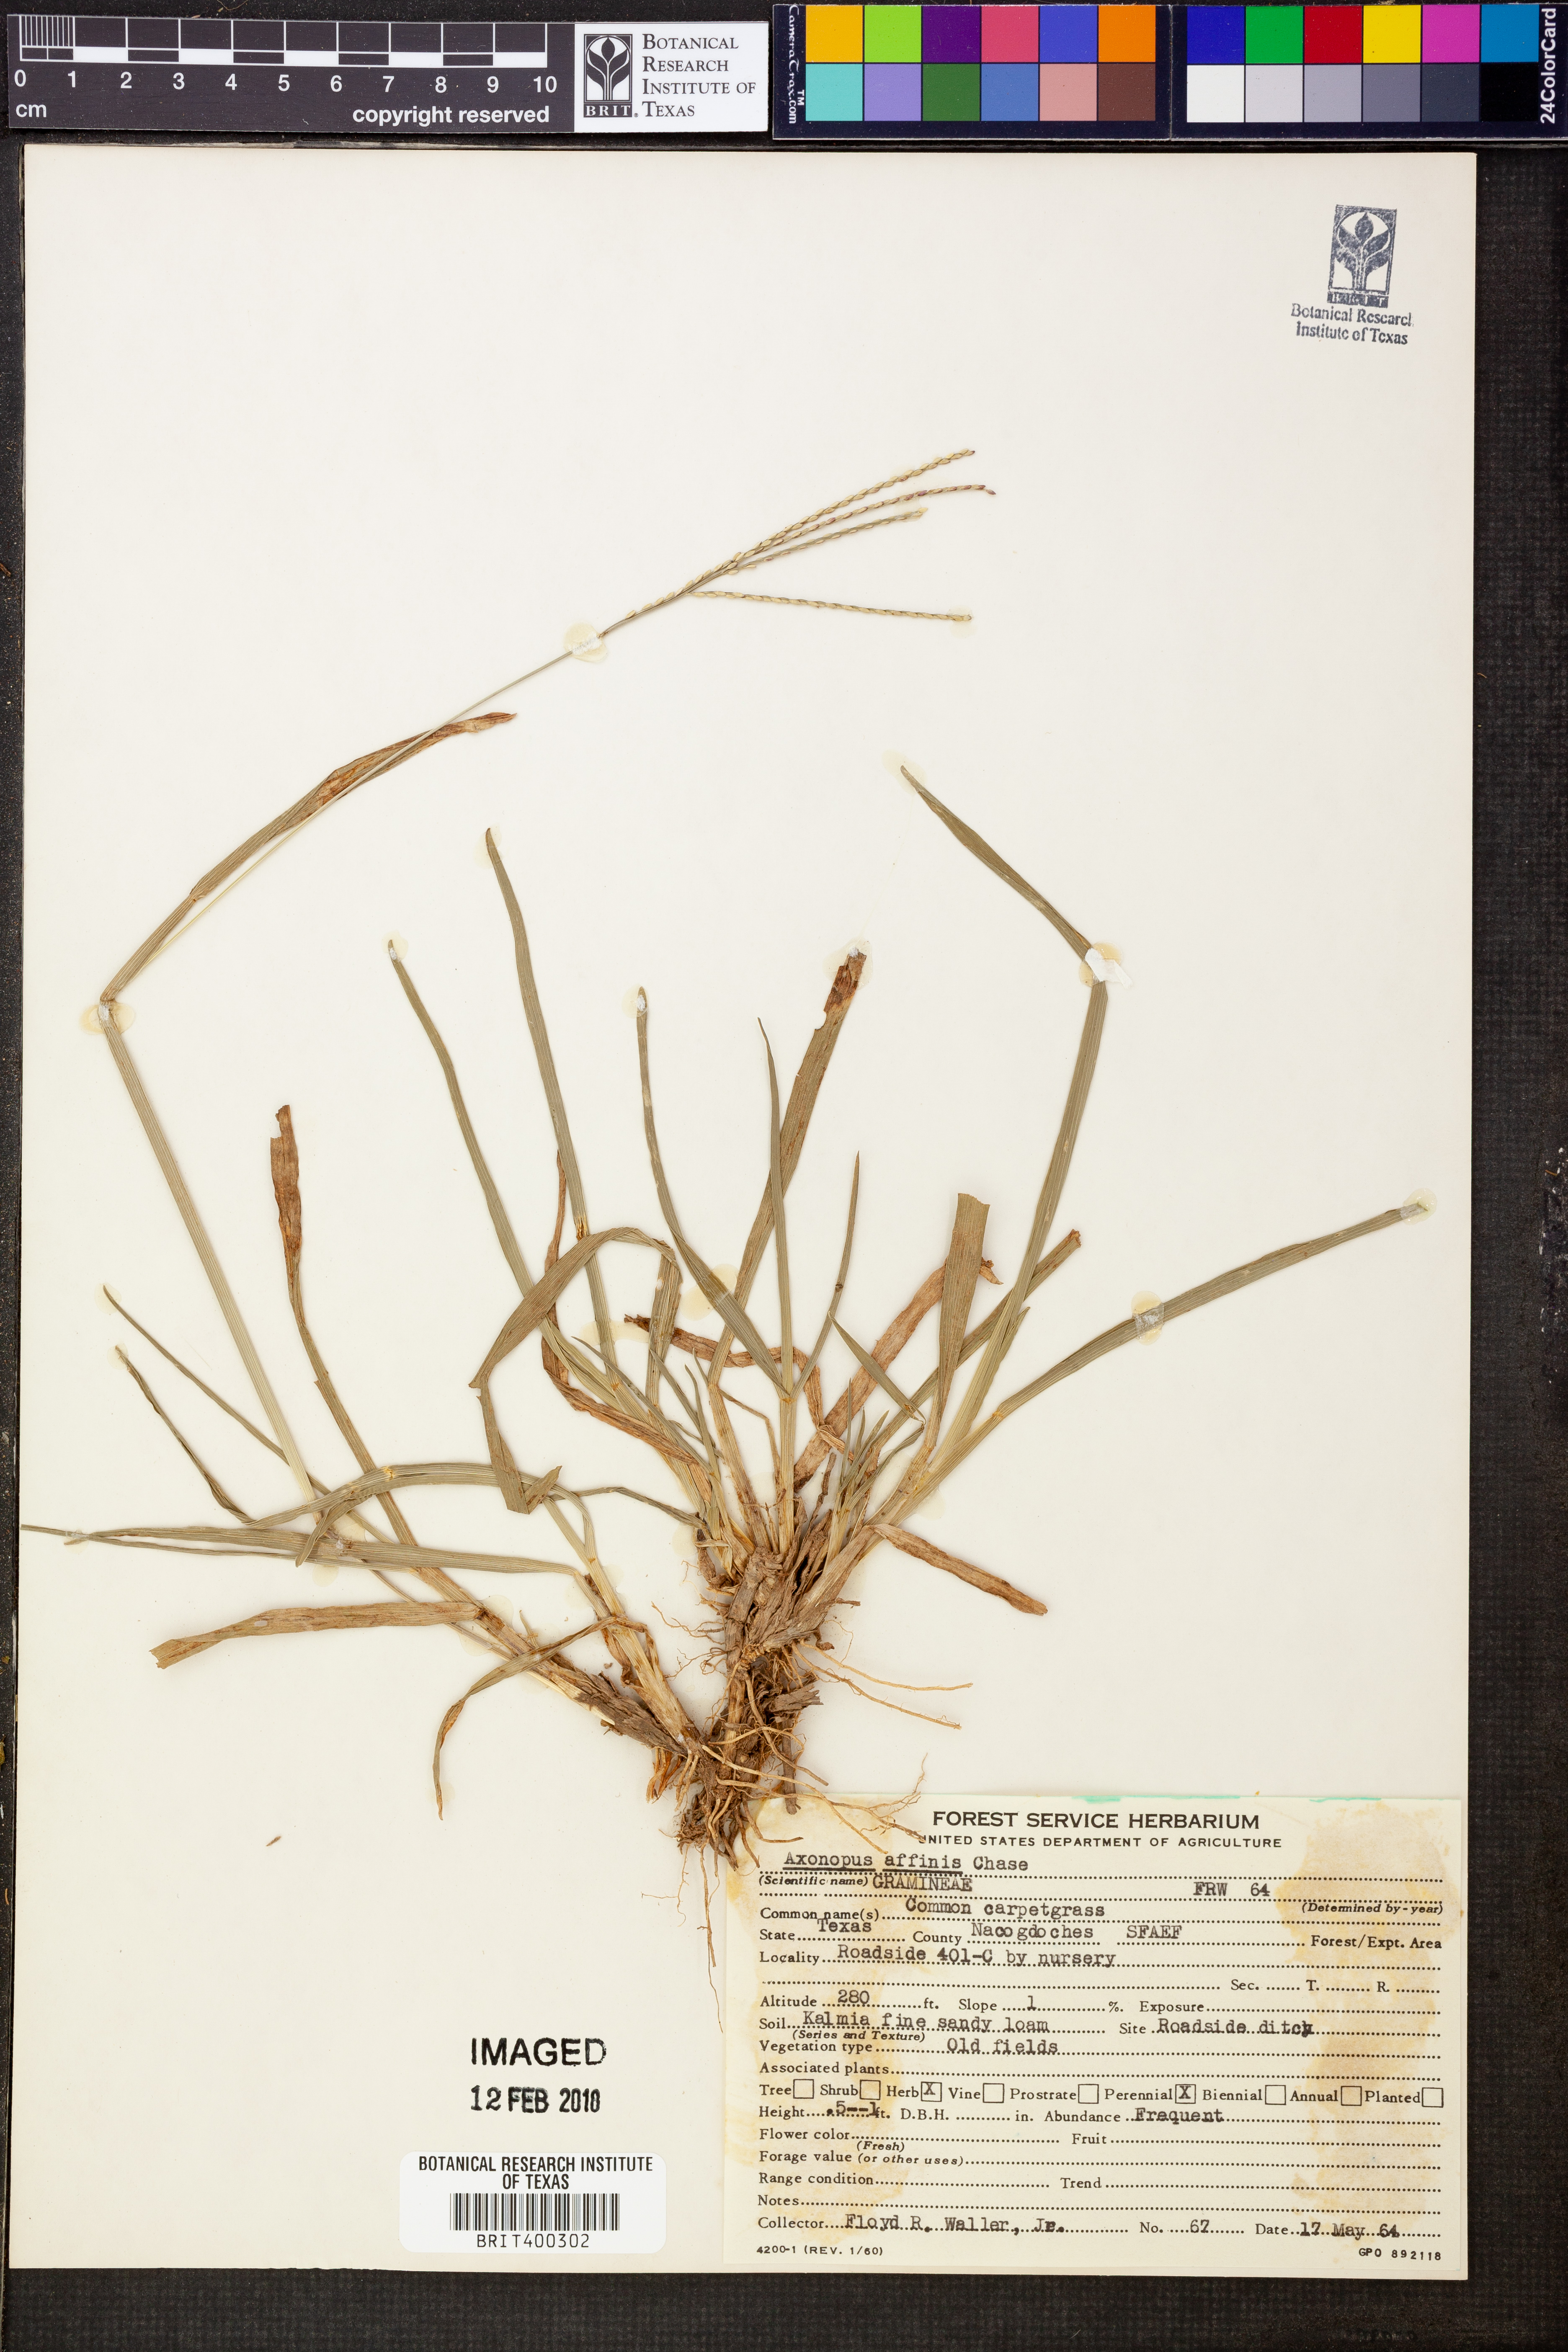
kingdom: Plantae
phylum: Tracheophyta
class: Liliopsida
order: Poales
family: Poaceae
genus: Axonopus
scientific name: Axonopus fissifolius
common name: Common carpetgrass
